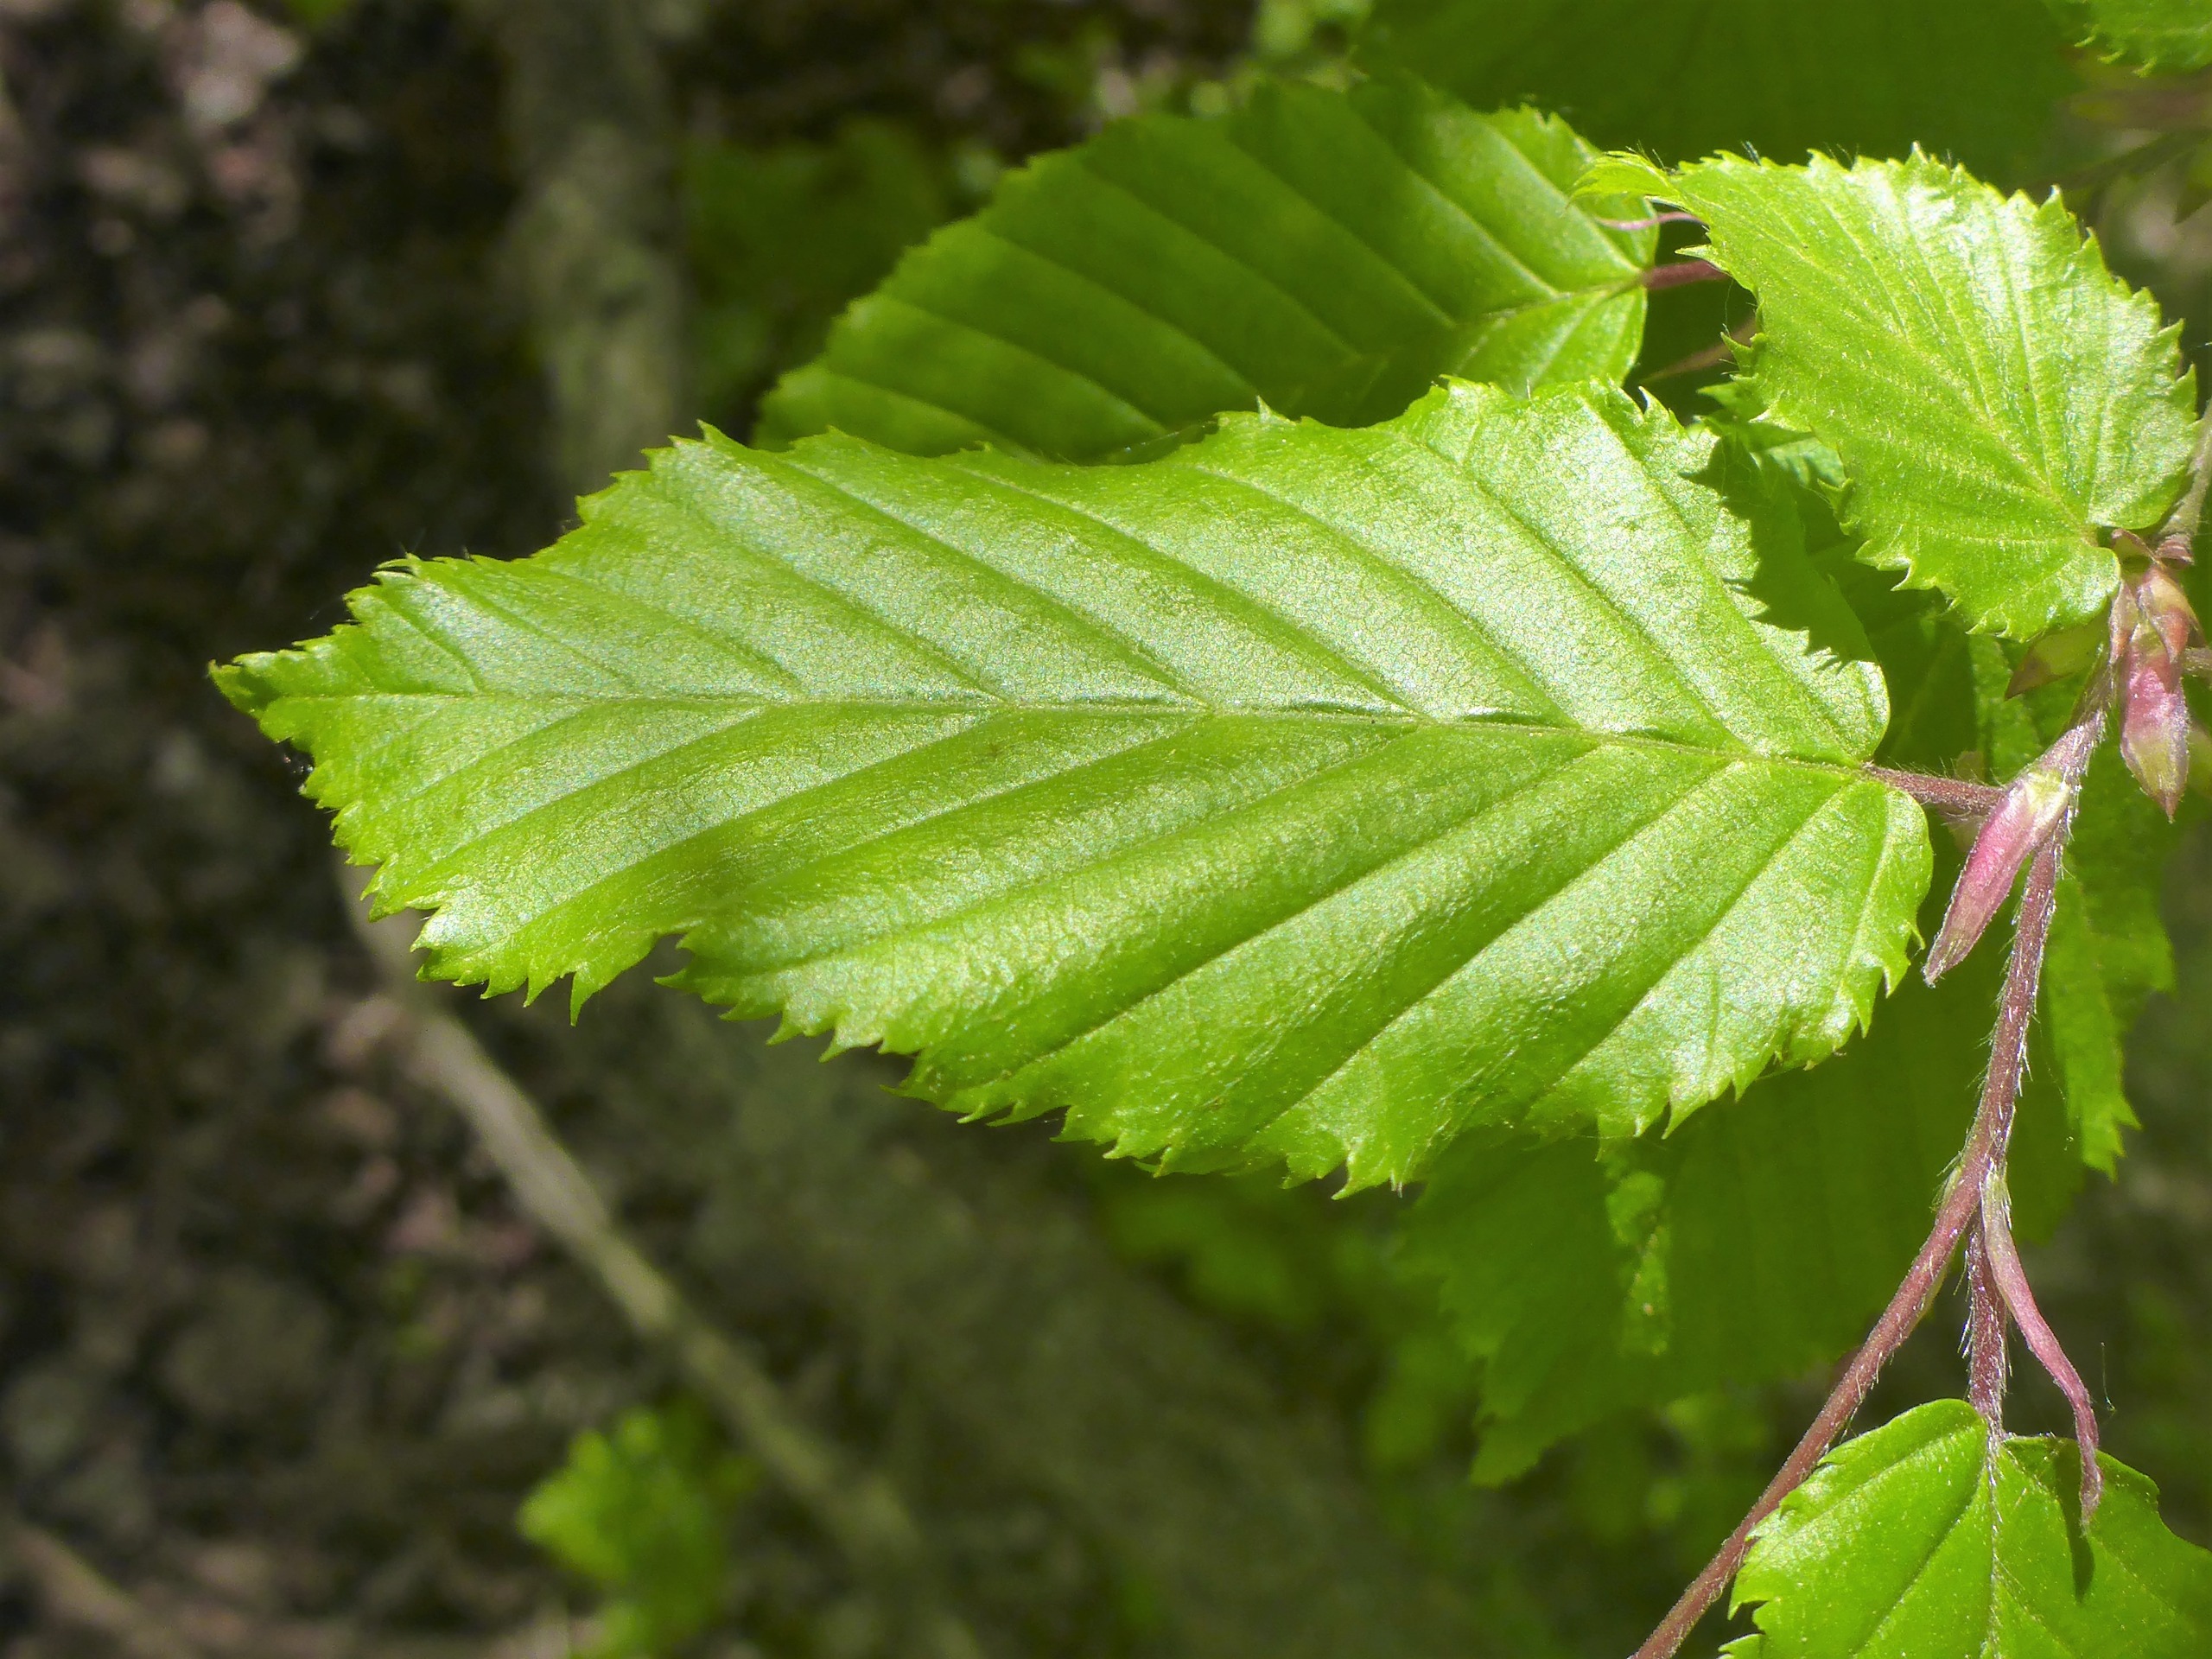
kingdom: Plantae
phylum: Tracheophyta
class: Magnoliopsida
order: Fagales
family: Fagaceae
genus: Fagus
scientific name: Fagus sylvatica
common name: Bøg
